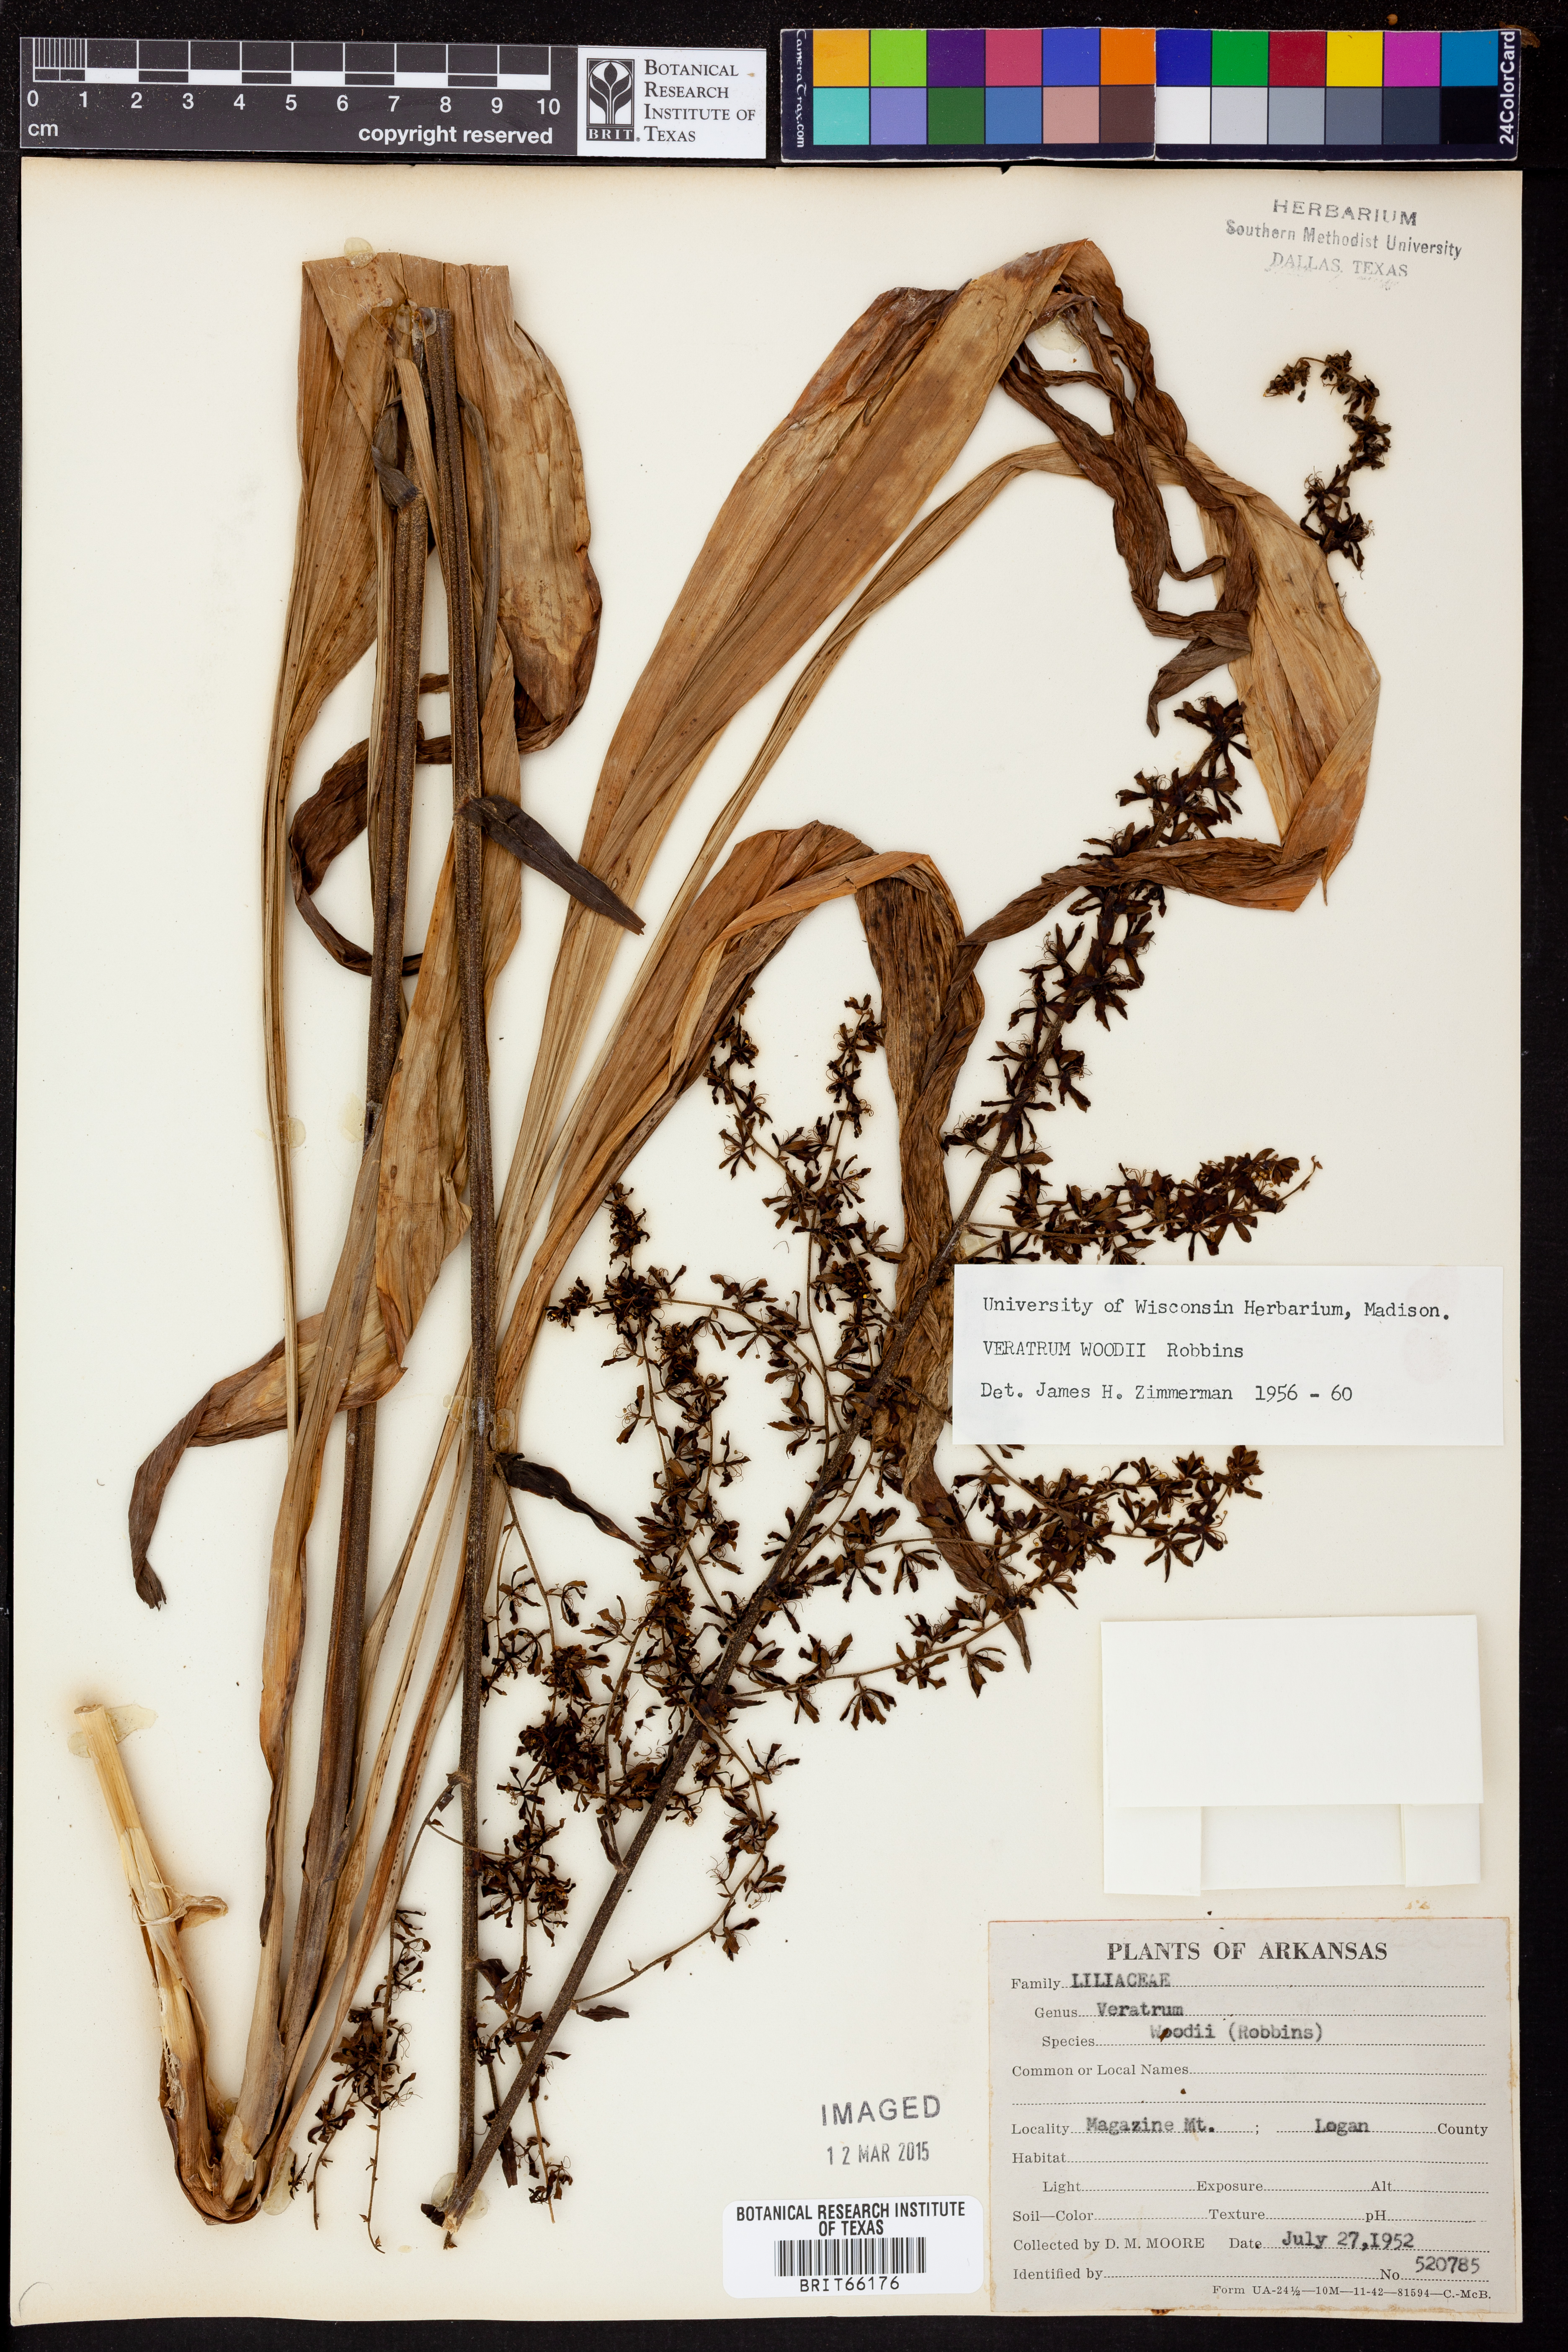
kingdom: Plantae
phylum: Tracheophyta
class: Liliopsida
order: Liliales
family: Melanthiaceae
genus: Melanthium
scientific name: Melanthium woodii
